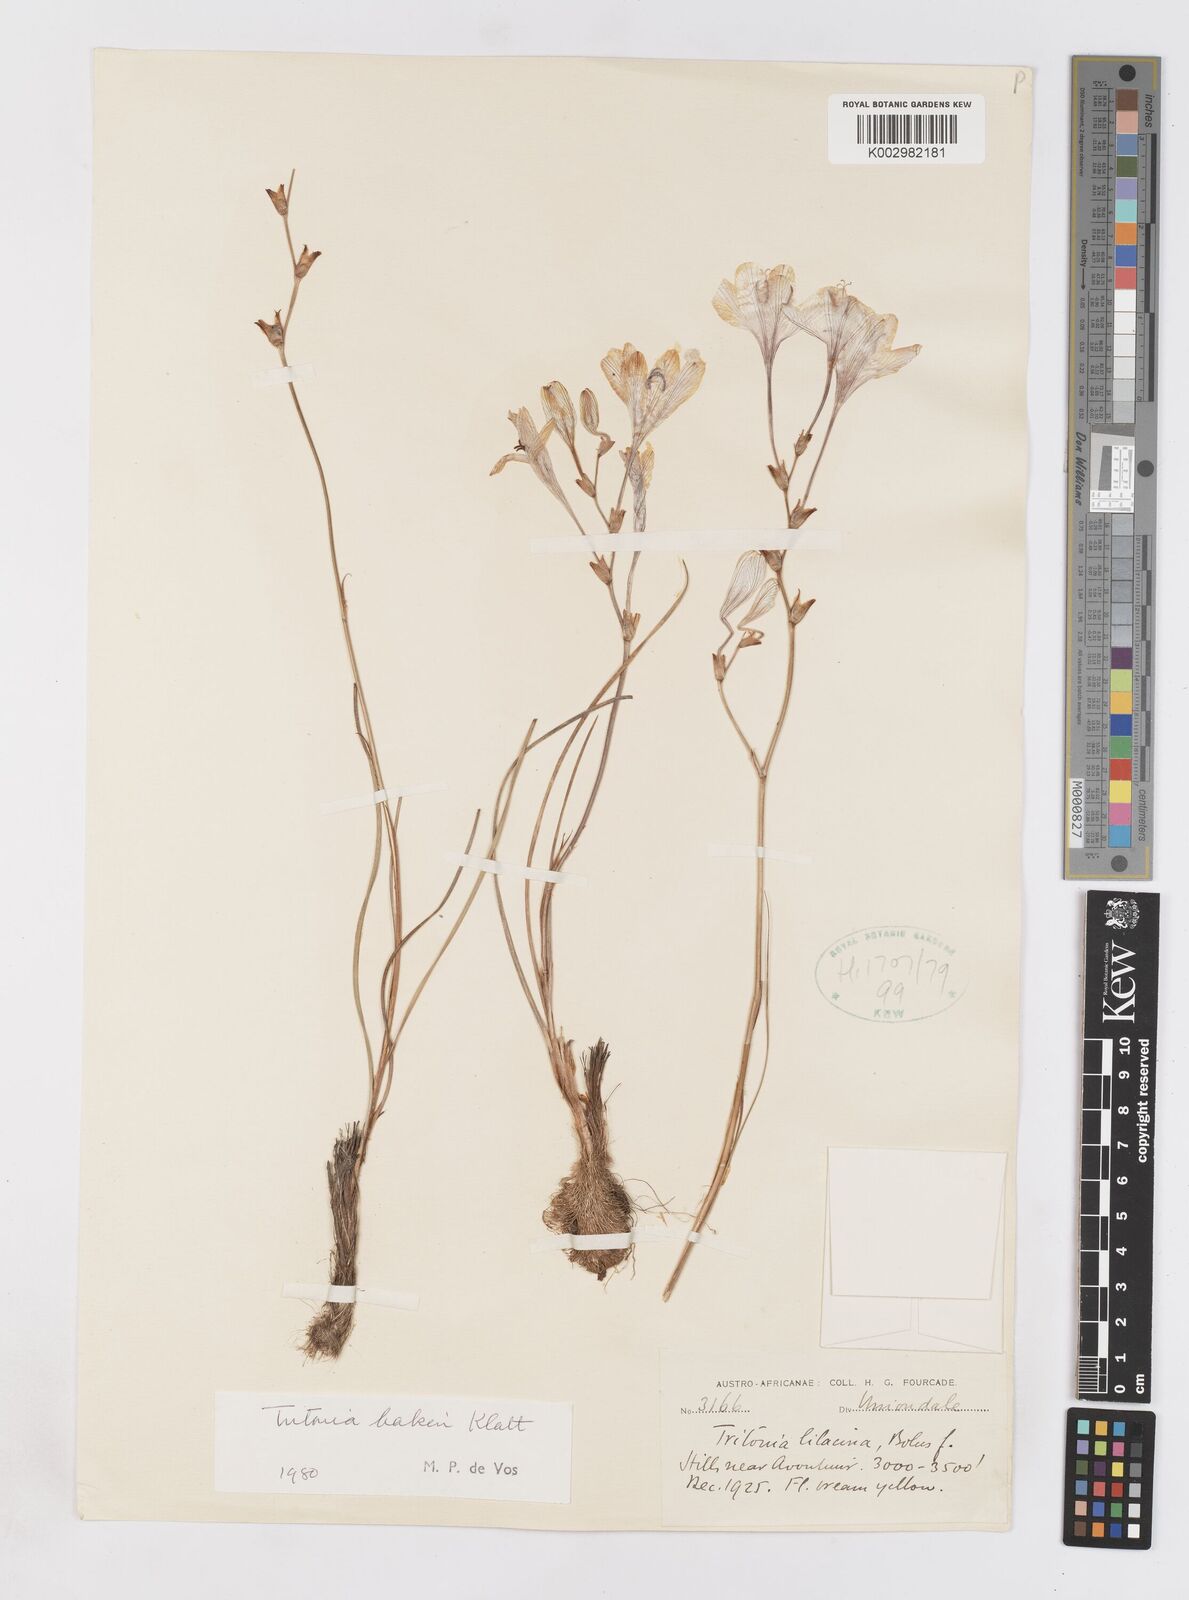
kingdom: Plantae
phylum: Tracheophyta
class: Liliopsida
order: Asparagales
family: Iridaceae
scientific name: Iridaceae
